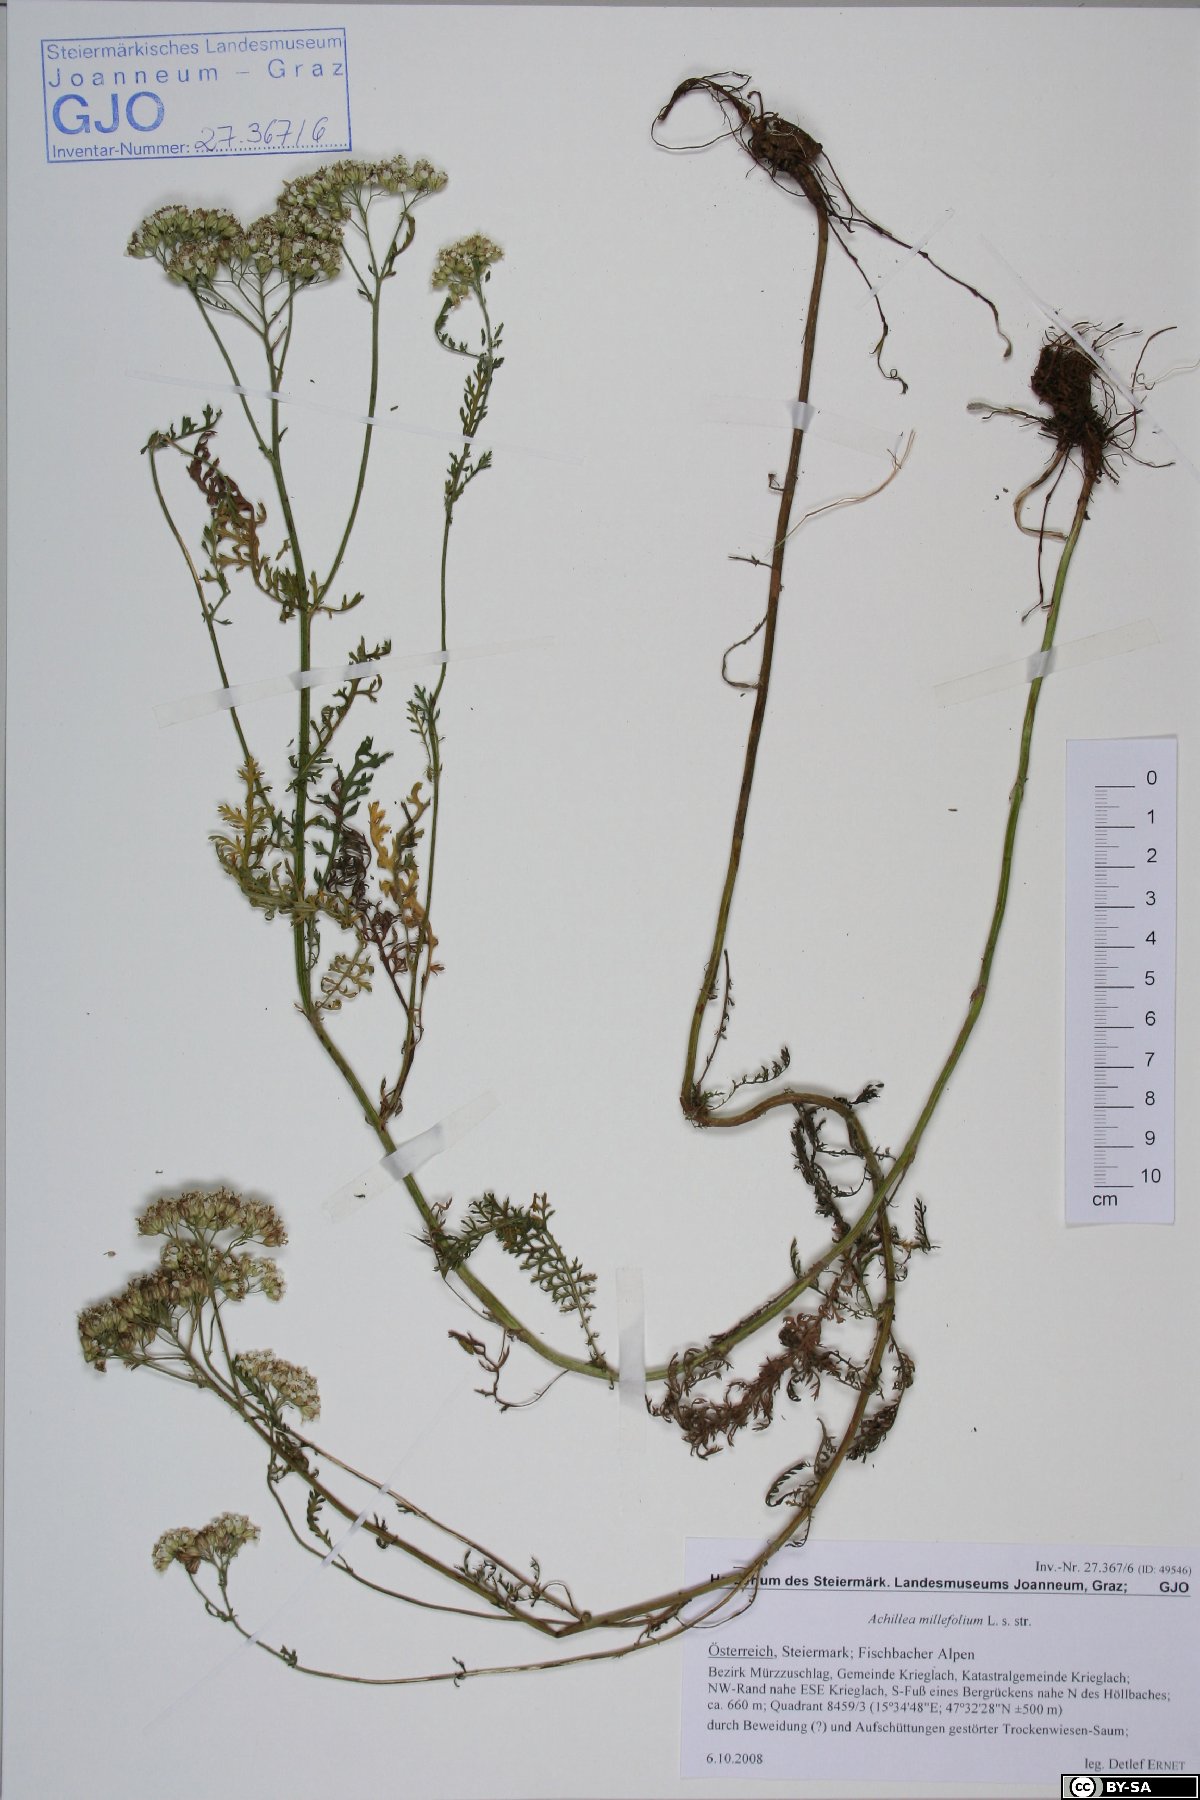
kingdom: Plantae
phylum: Tracheophyta
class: Magnoliopsida
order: Asterales
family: Asteraceae
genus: Achillea
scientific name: Achillea millefolium
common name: Yarrow
